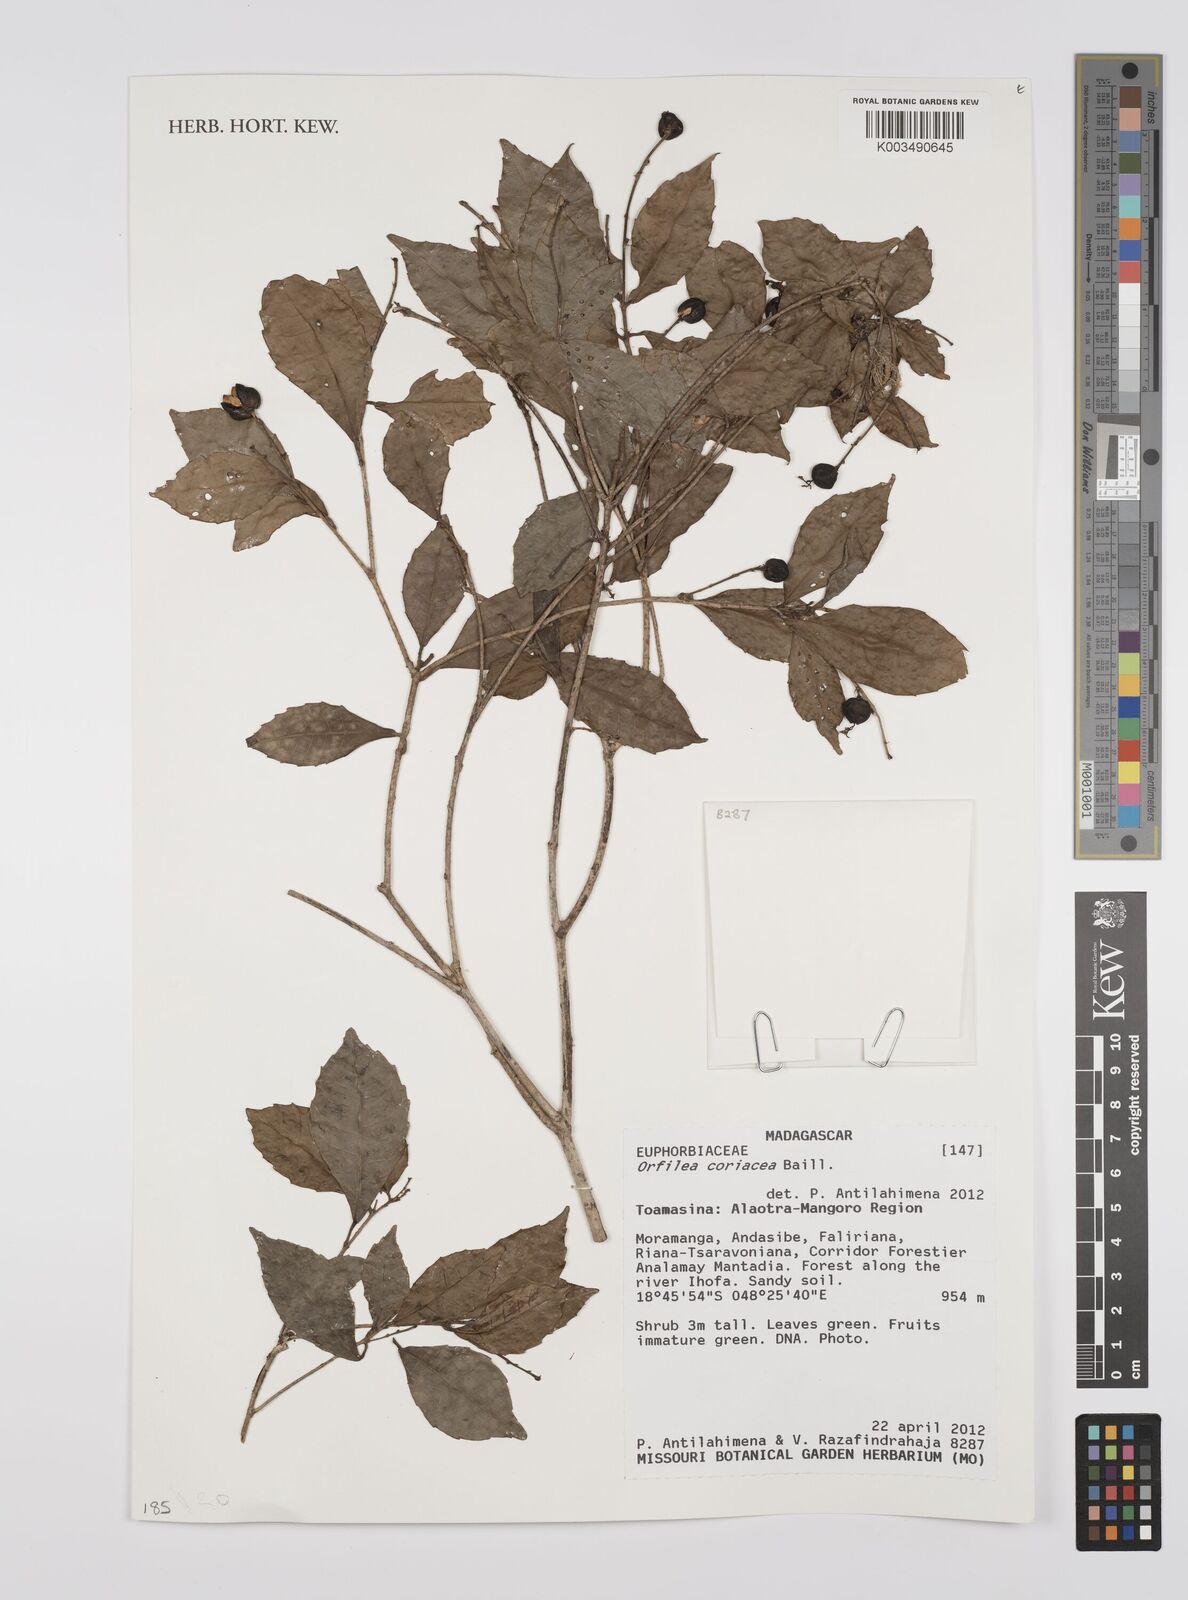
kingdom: Plantae
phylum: Tracheophyta
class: Magnoliopsida
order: Malpighiales
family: Euphorbiaceae
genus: Orfilea
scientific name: Orfilea coriacea
